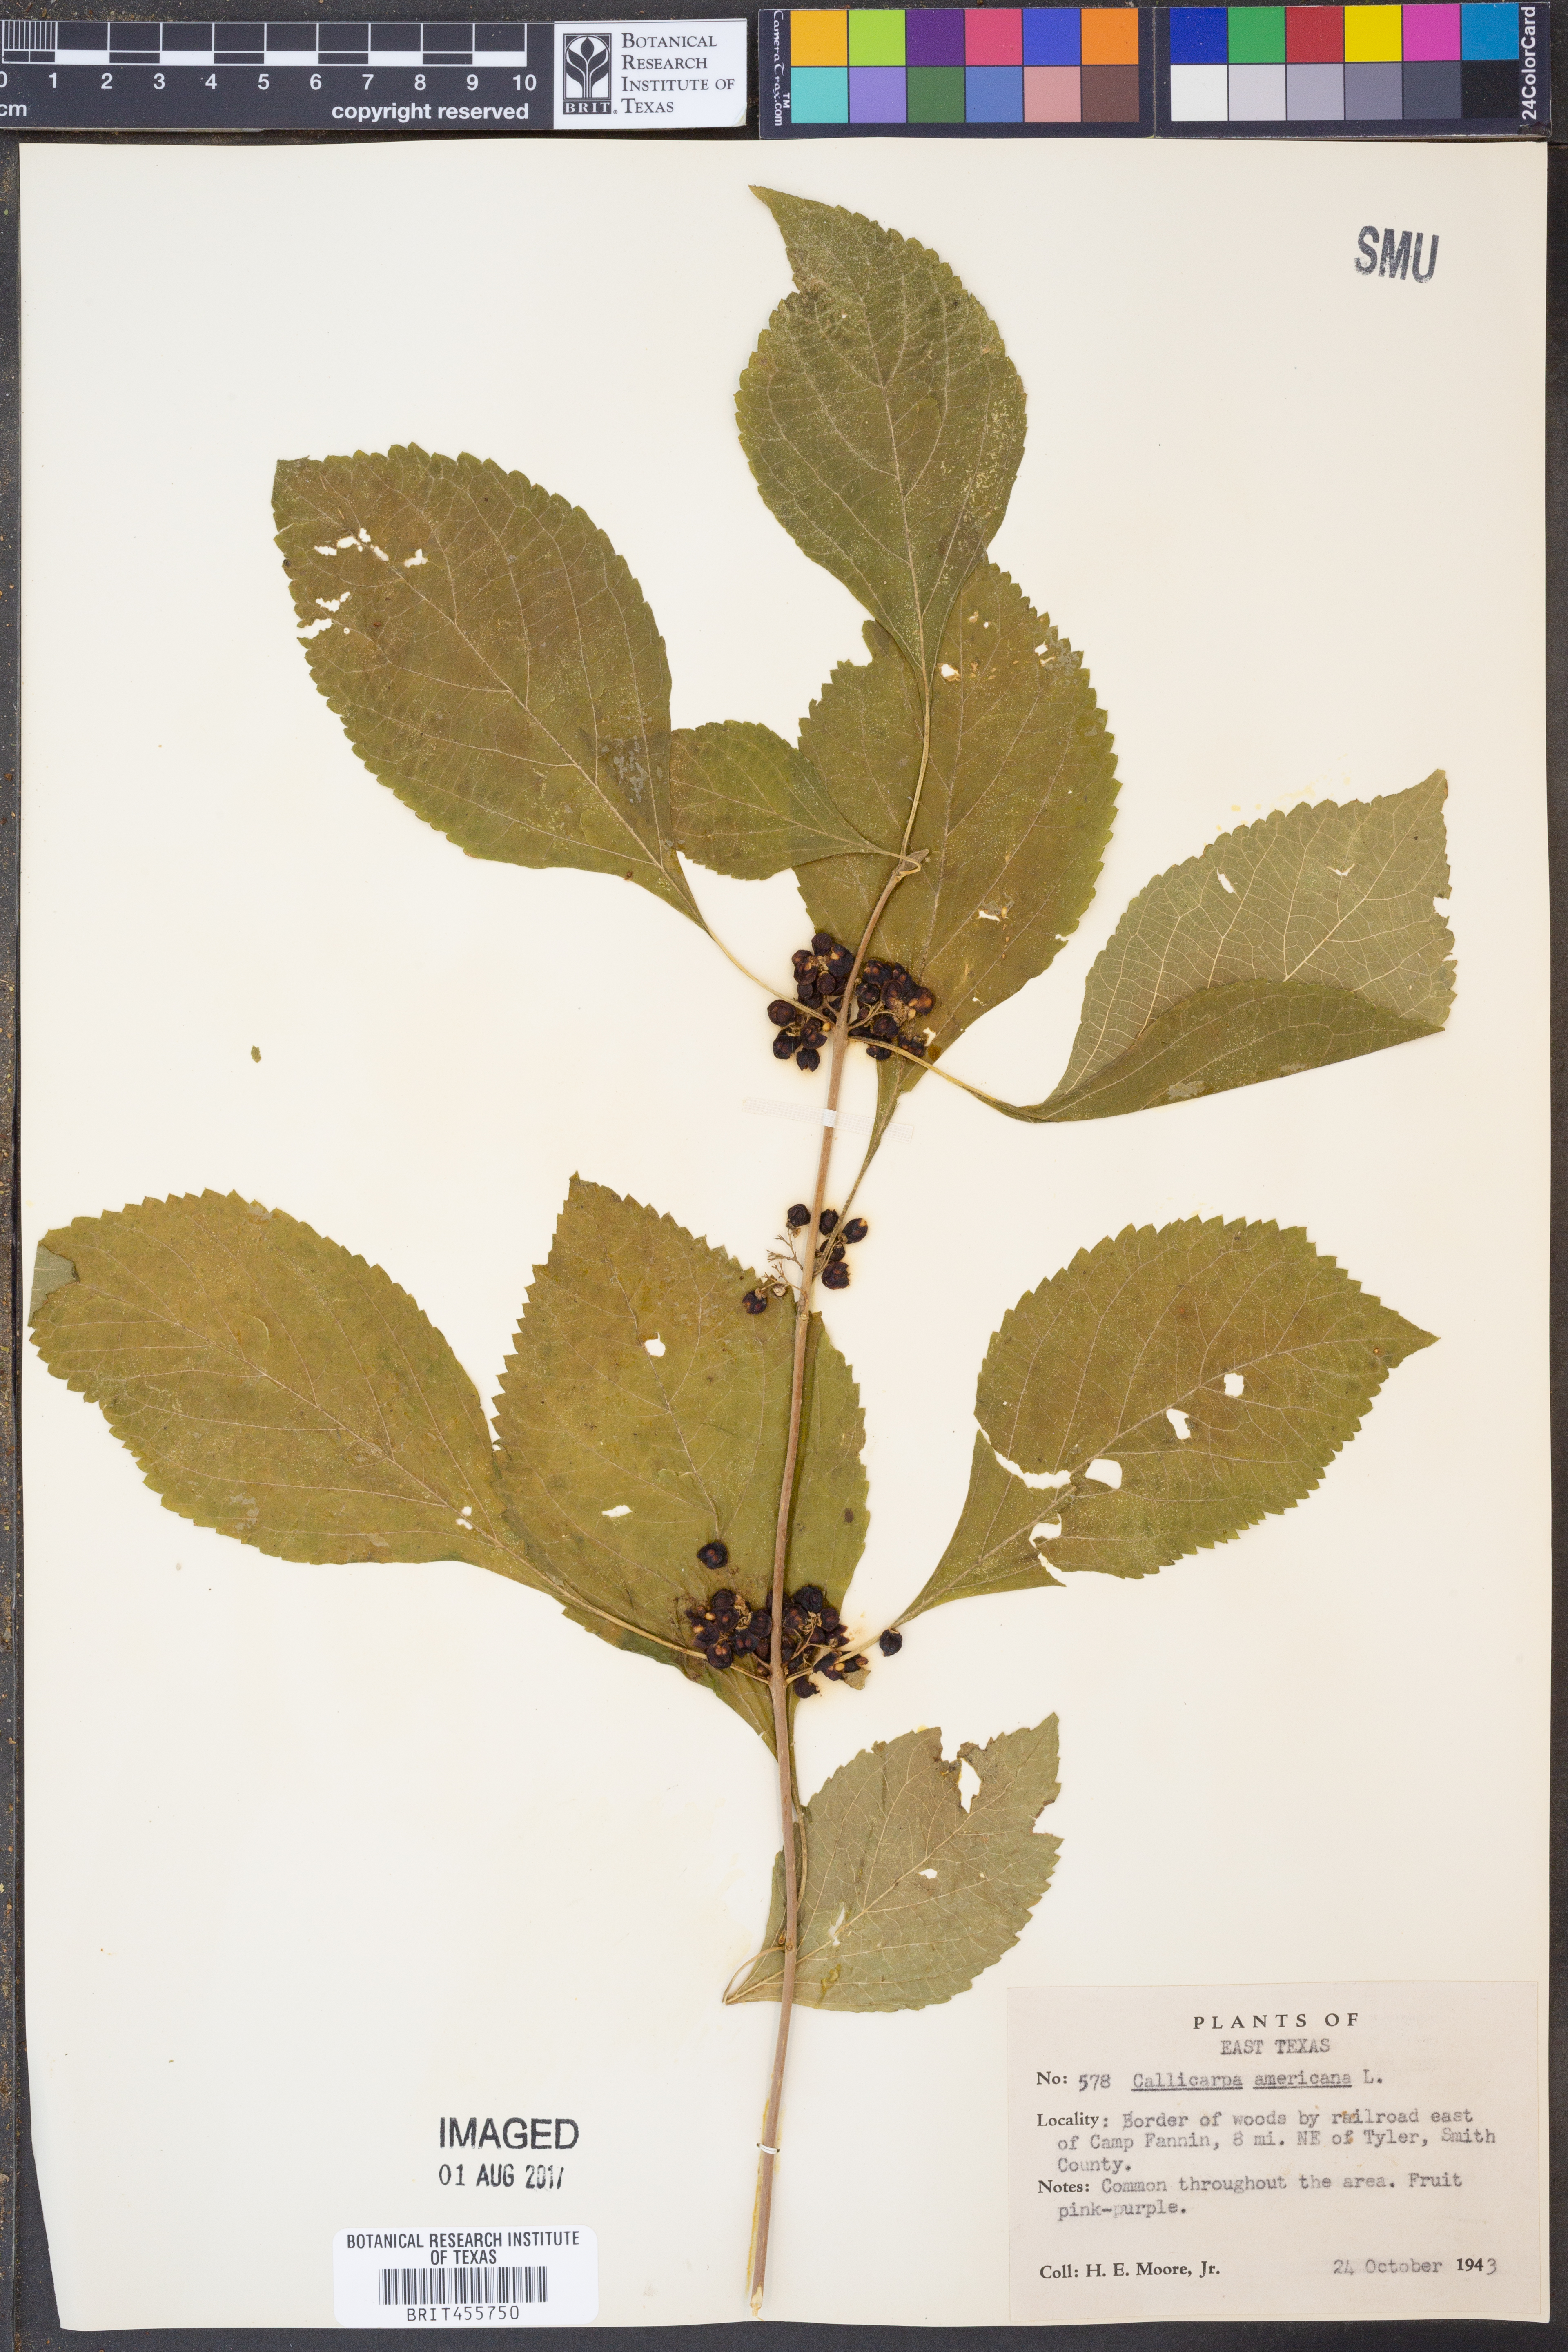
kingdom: Plantae
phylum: Tracheophyta
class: Magnoliopsida
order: Lamiales
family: Lamiaceae
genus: Callicarpa
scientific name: Callicarpa americana
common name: American beautyberry
